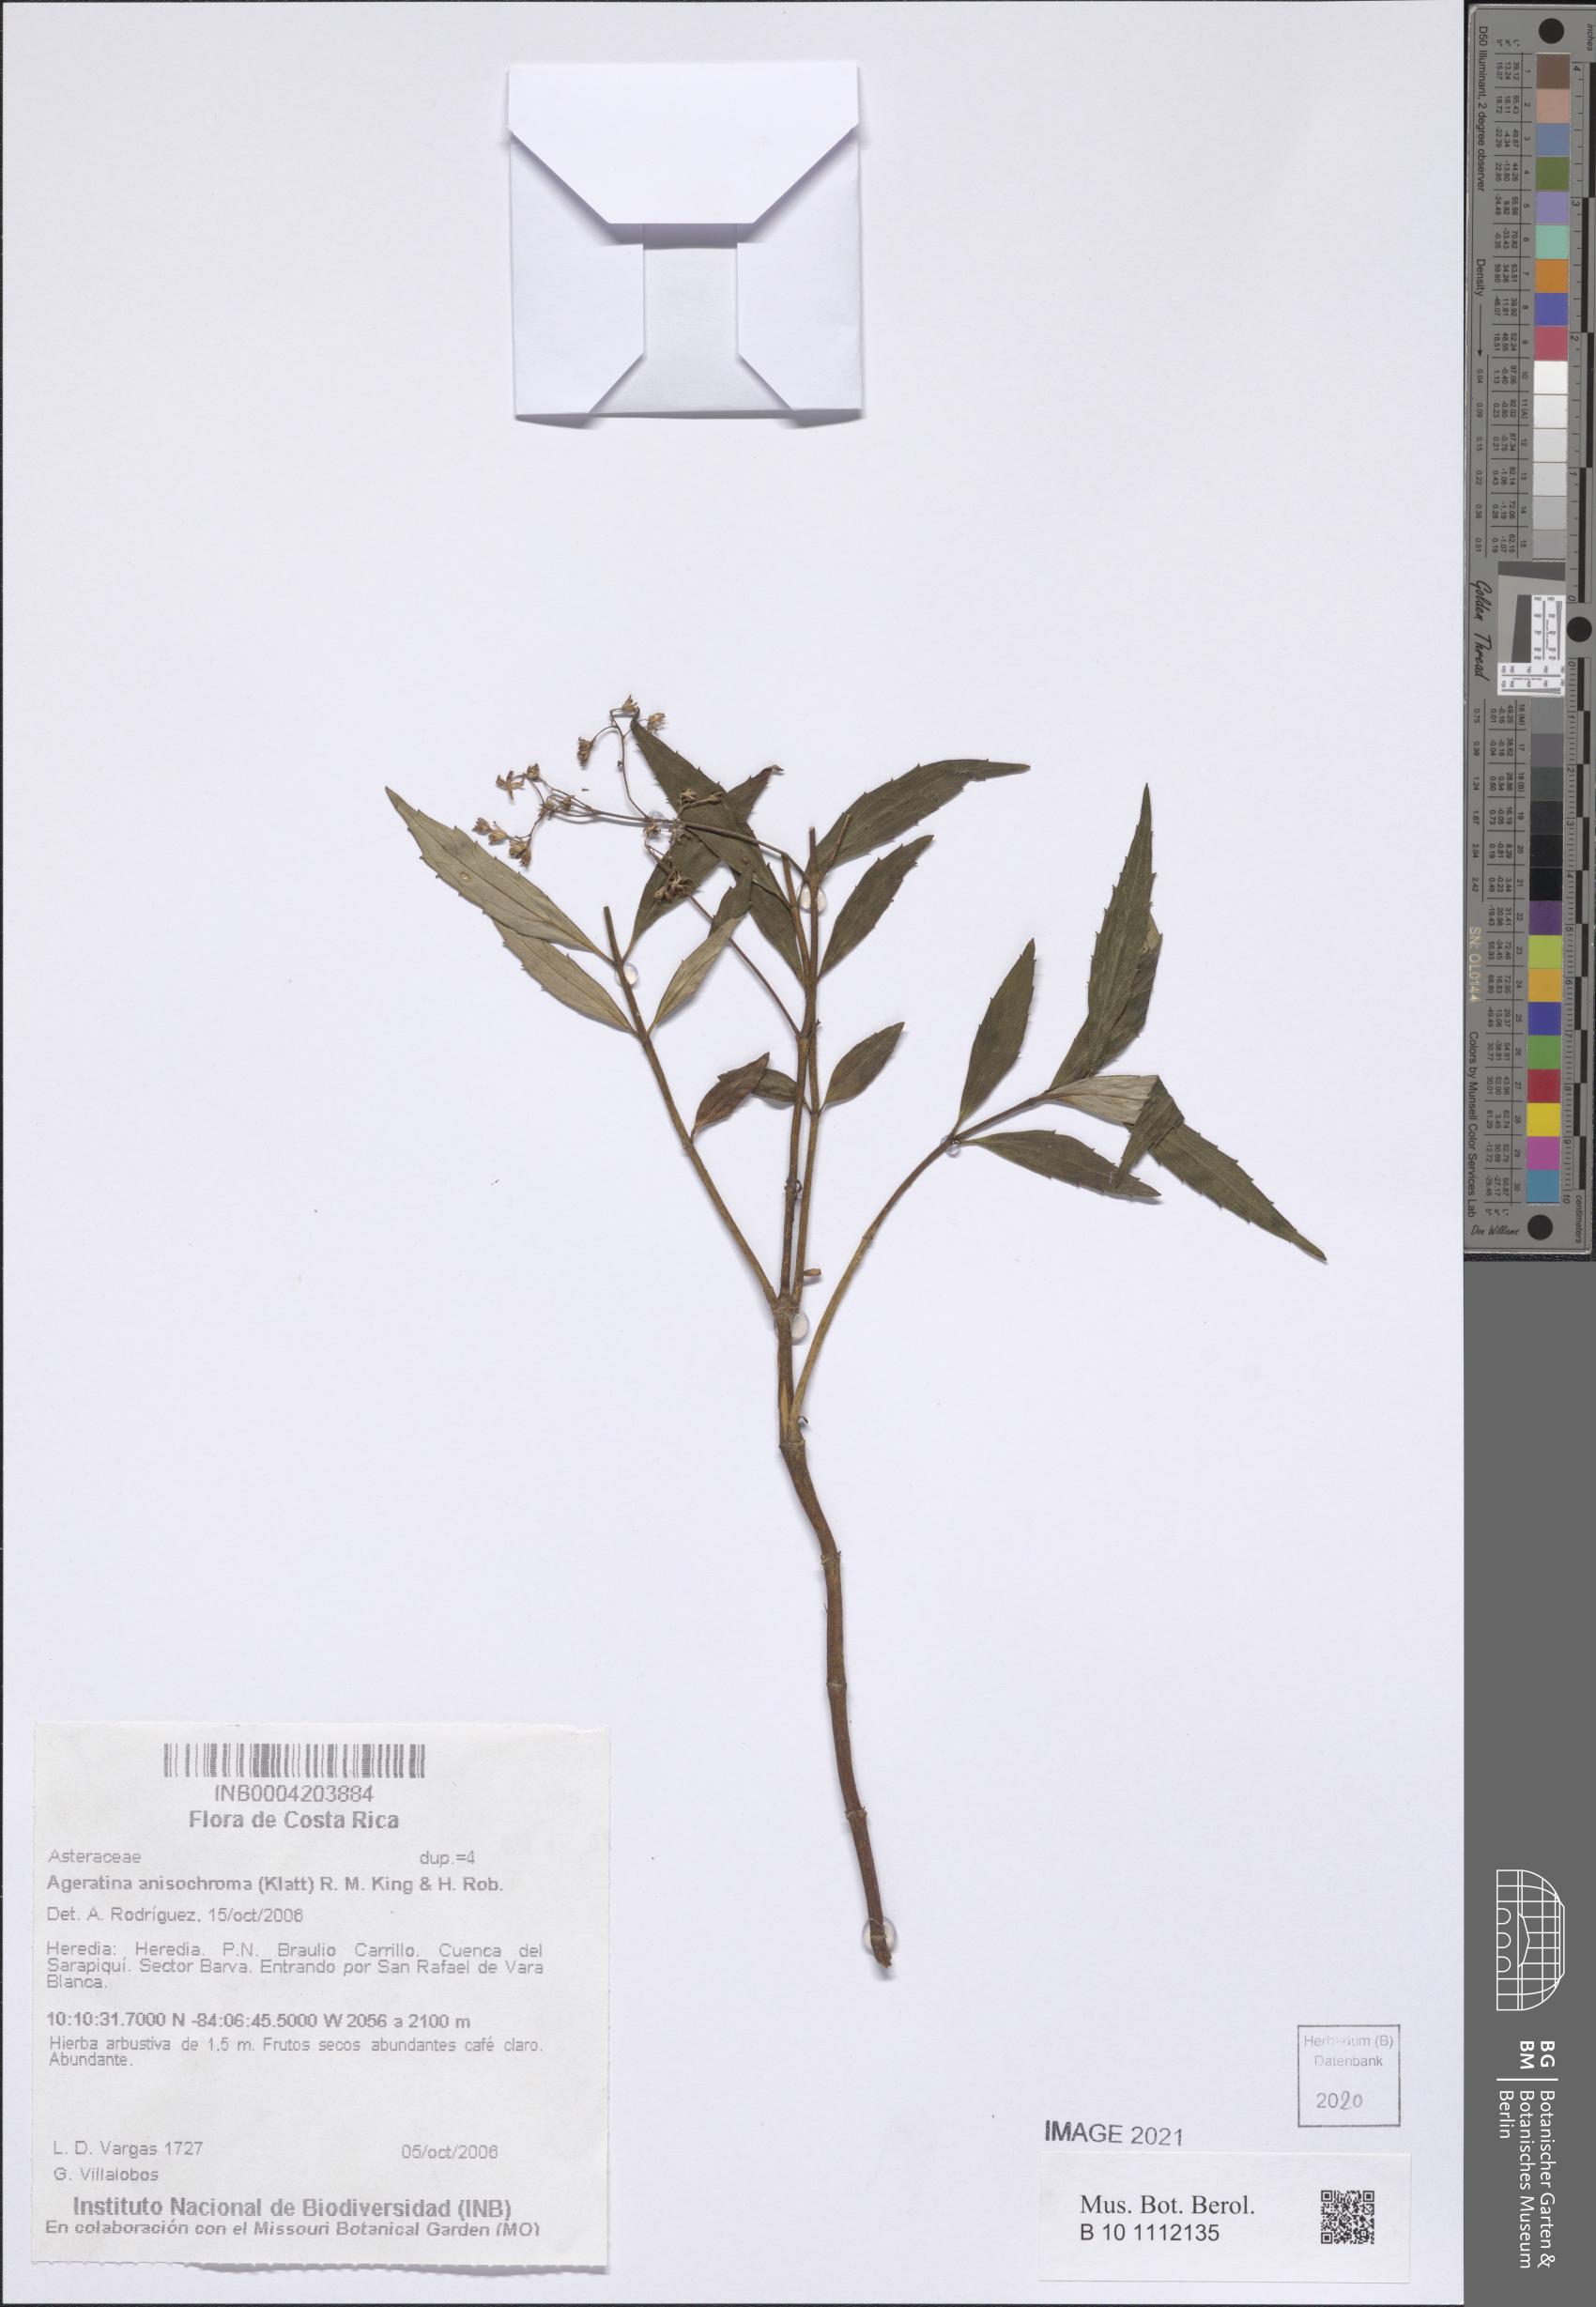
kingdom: Plantae
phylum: Tracheophyta
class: Magnoliopsida
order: Asterales
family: Asteraceae
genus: Ageratina
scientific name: Ageratina anisochroma
